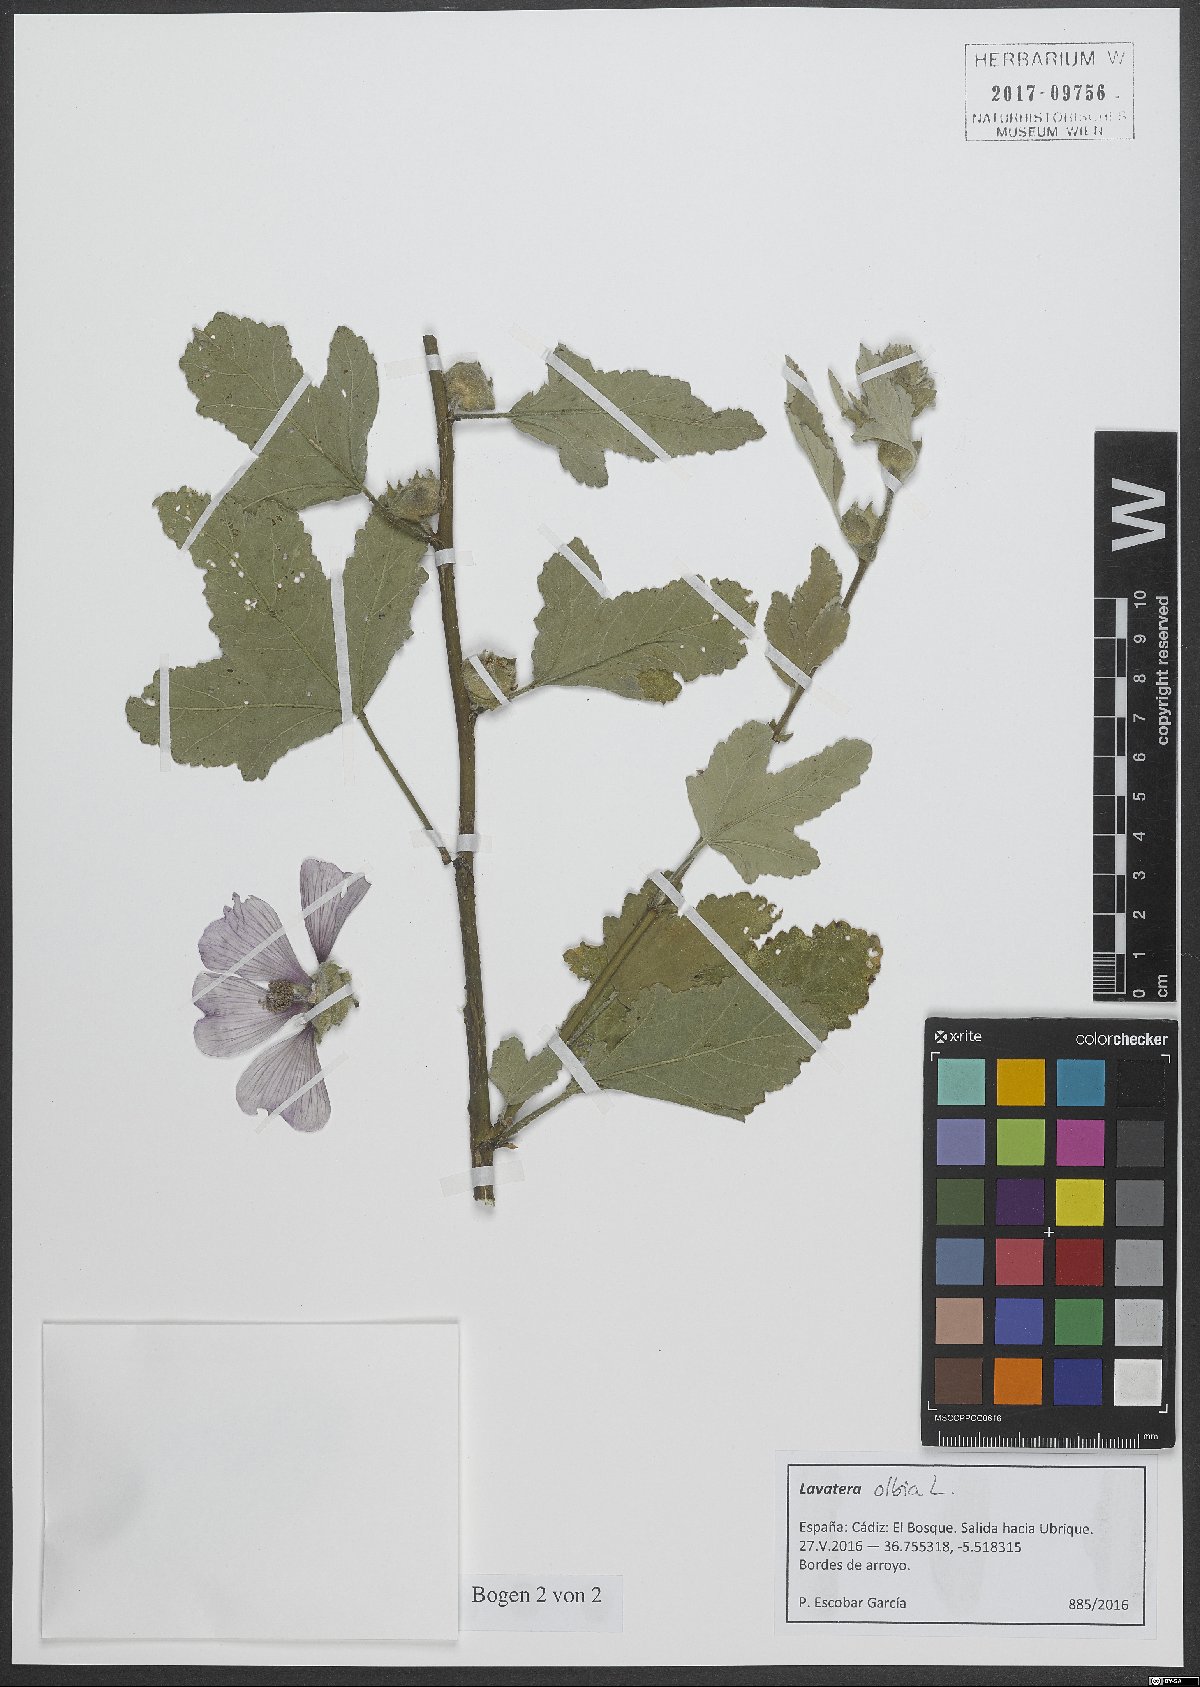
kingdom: Plantae
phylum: Tracheophyta
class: Magnoliopsida
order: Malvales
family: Malvaceae
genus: Malva
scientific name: Malva olbia
